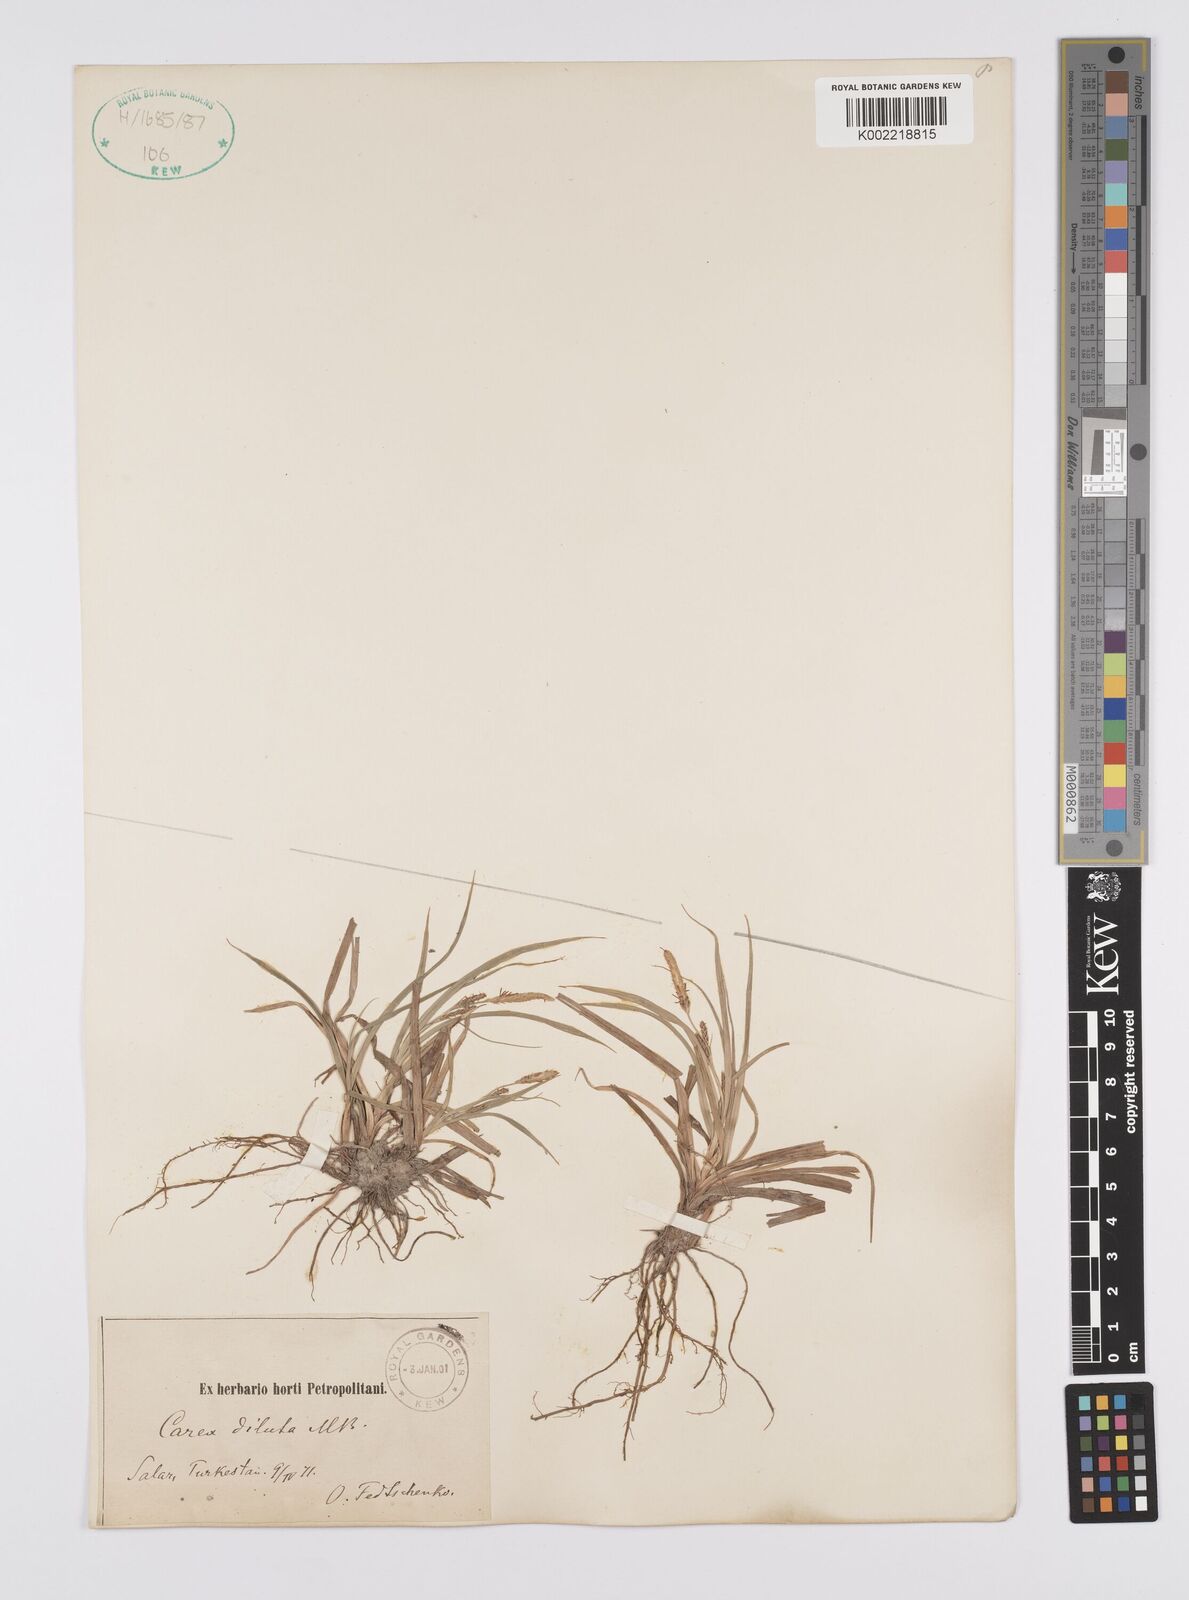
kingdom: Plantae
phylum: Tracheophyta
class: Liliopsida
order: Poales
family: Cyperaceae
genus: Carex
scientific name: Carex diluta
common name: Sedge
